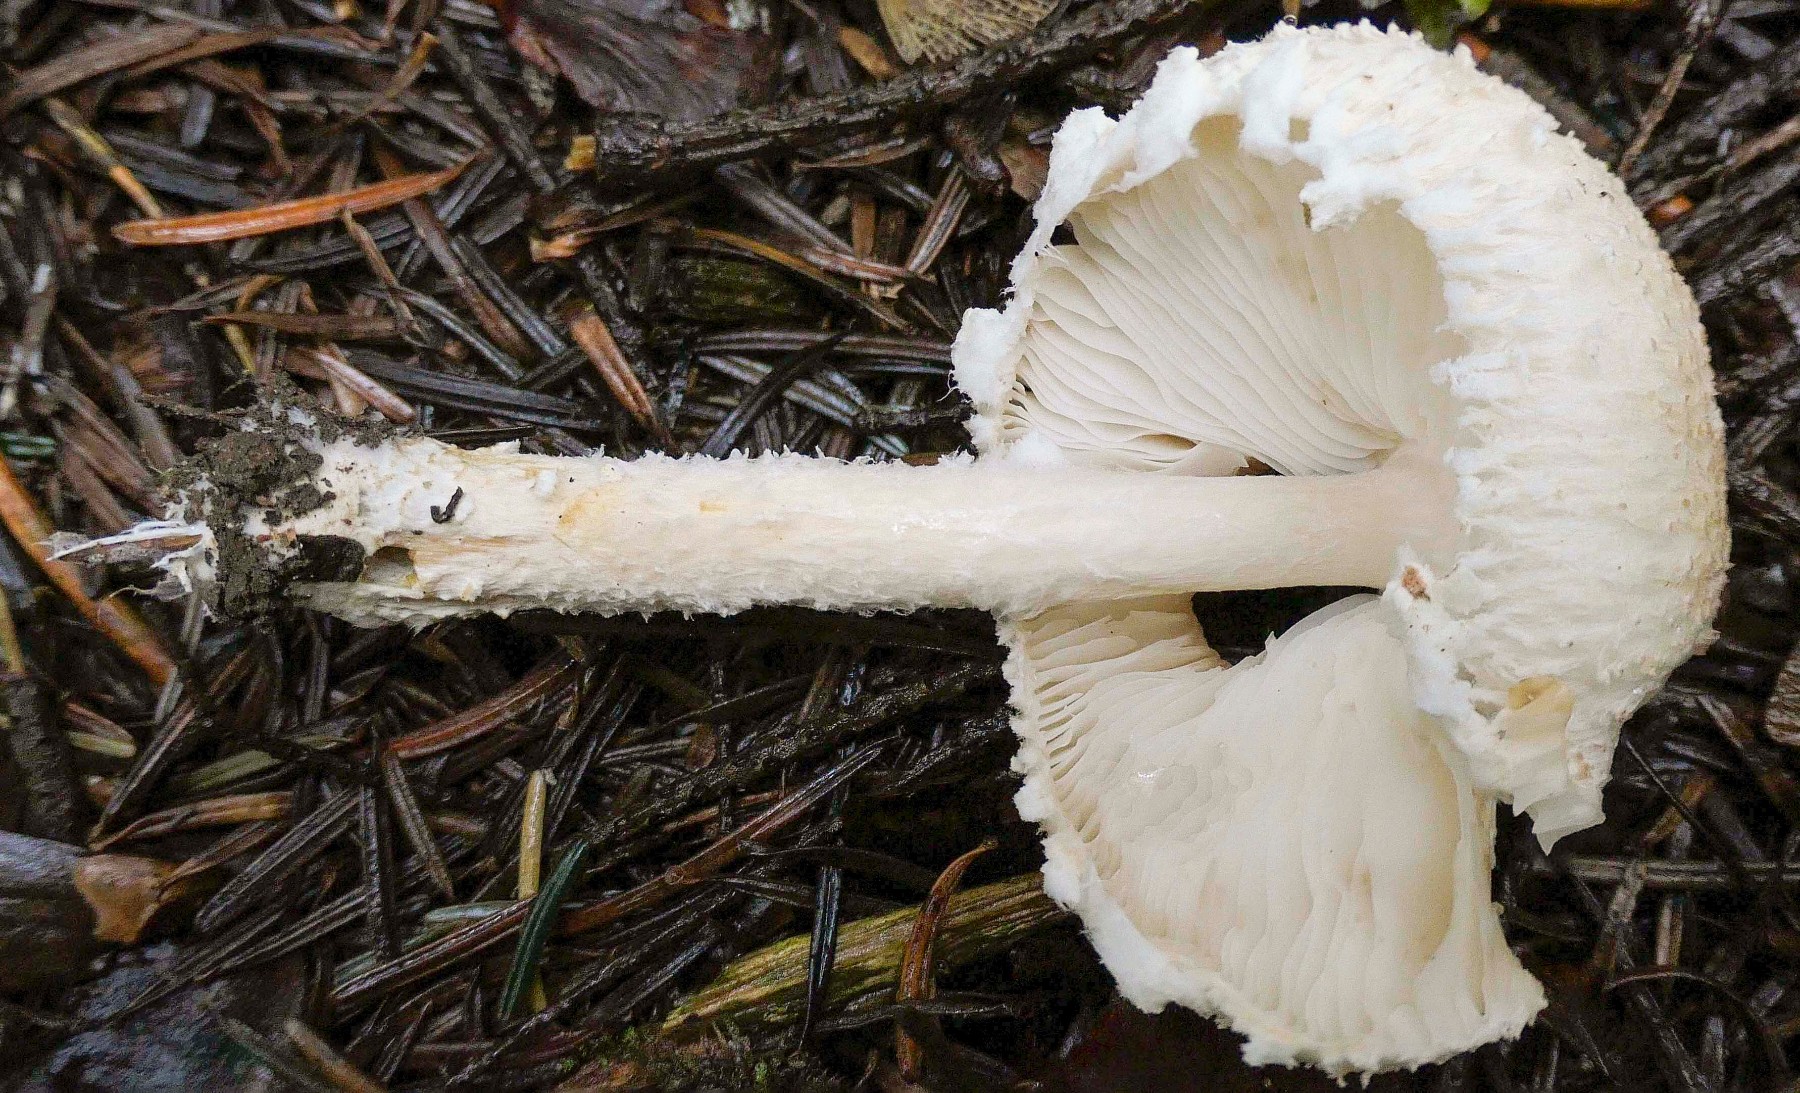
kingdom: Fungi
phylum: Basidiomycota
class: Agaricomycetes
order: Agaricales
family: Agaricaceae
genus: Lepiota
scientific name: Lepiota clypeolaria
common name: flosset parasolhat
